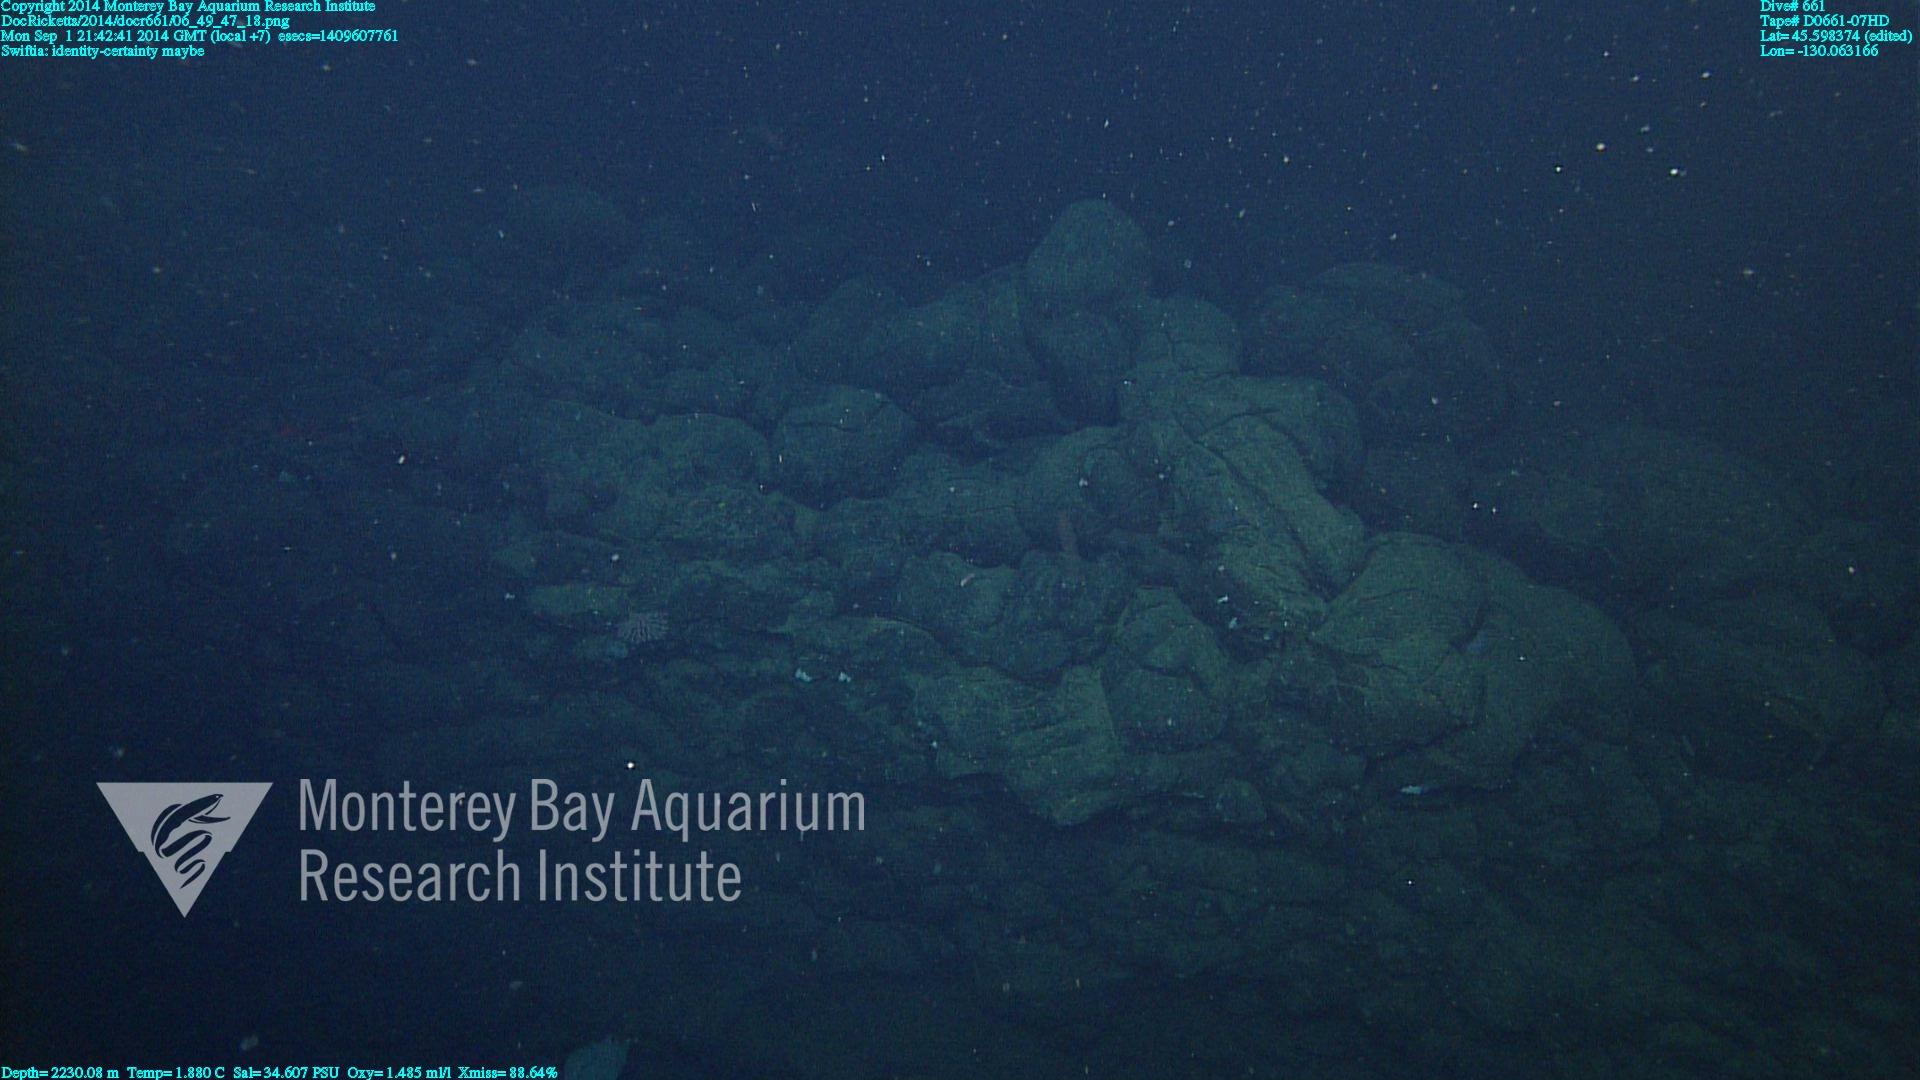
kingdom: Animalia
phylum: Cnidaria
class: Anthozoa
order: Malacalcyonacea
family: Plexauridae
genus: Swiftia
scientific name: Swiftia
